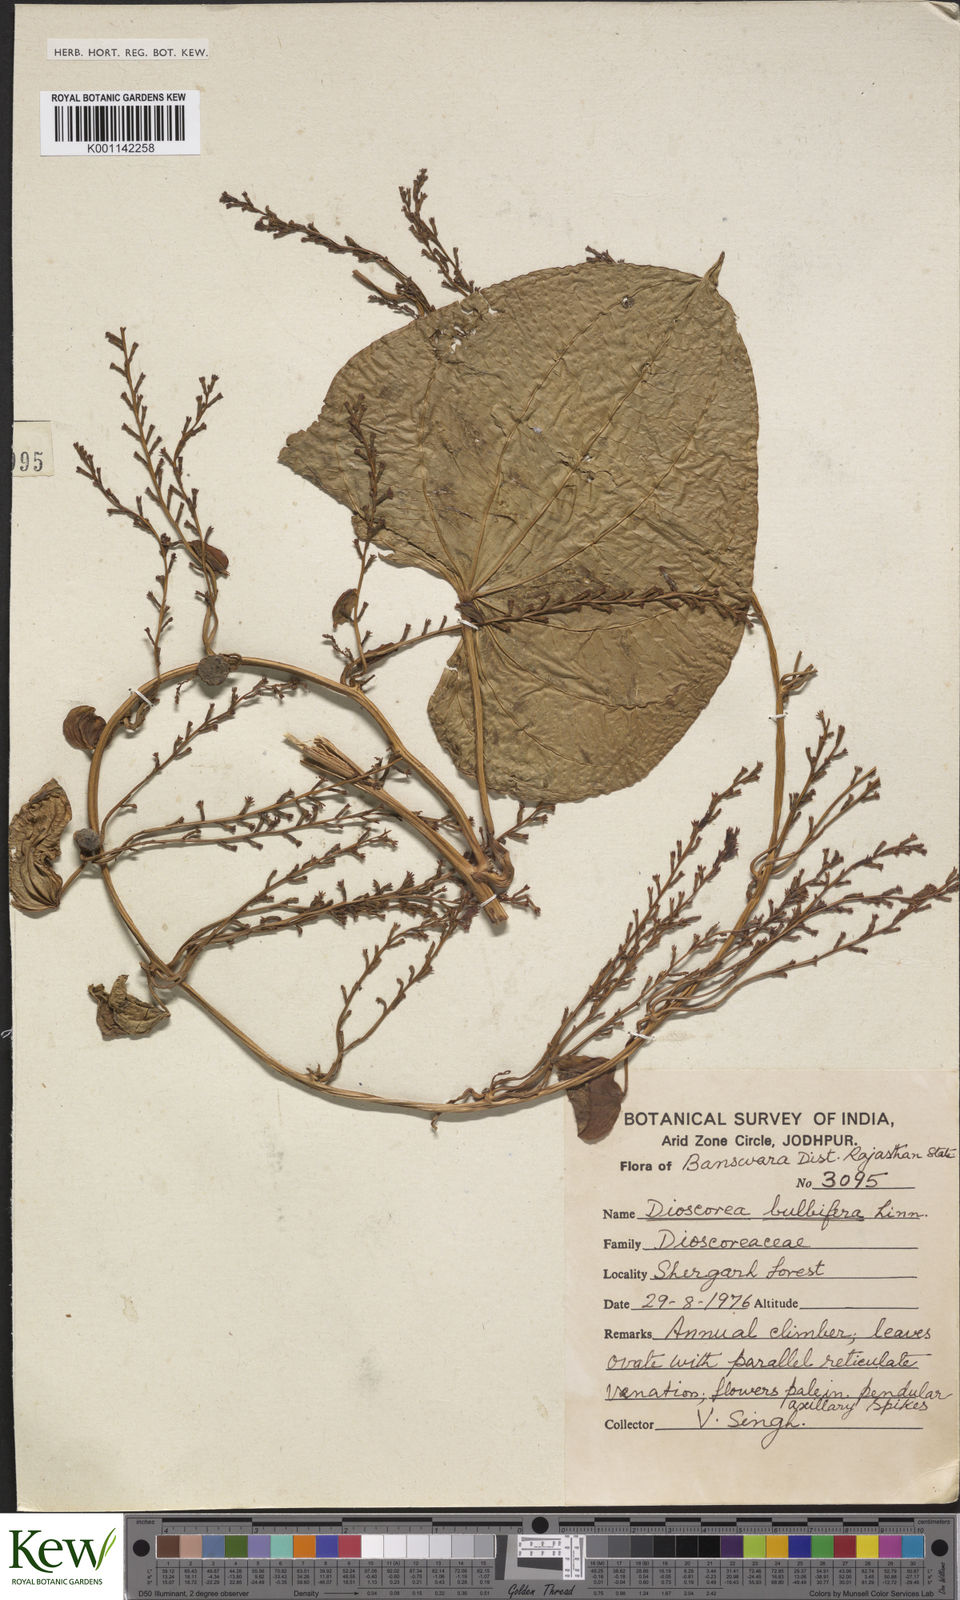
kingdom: Plantae
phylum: Tracheophyta
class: Liliopsida
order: Dioscoreales
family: Dioscoreaceae
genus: Dioscorea
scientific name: Dioscorea bulbifera
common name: Air yam
